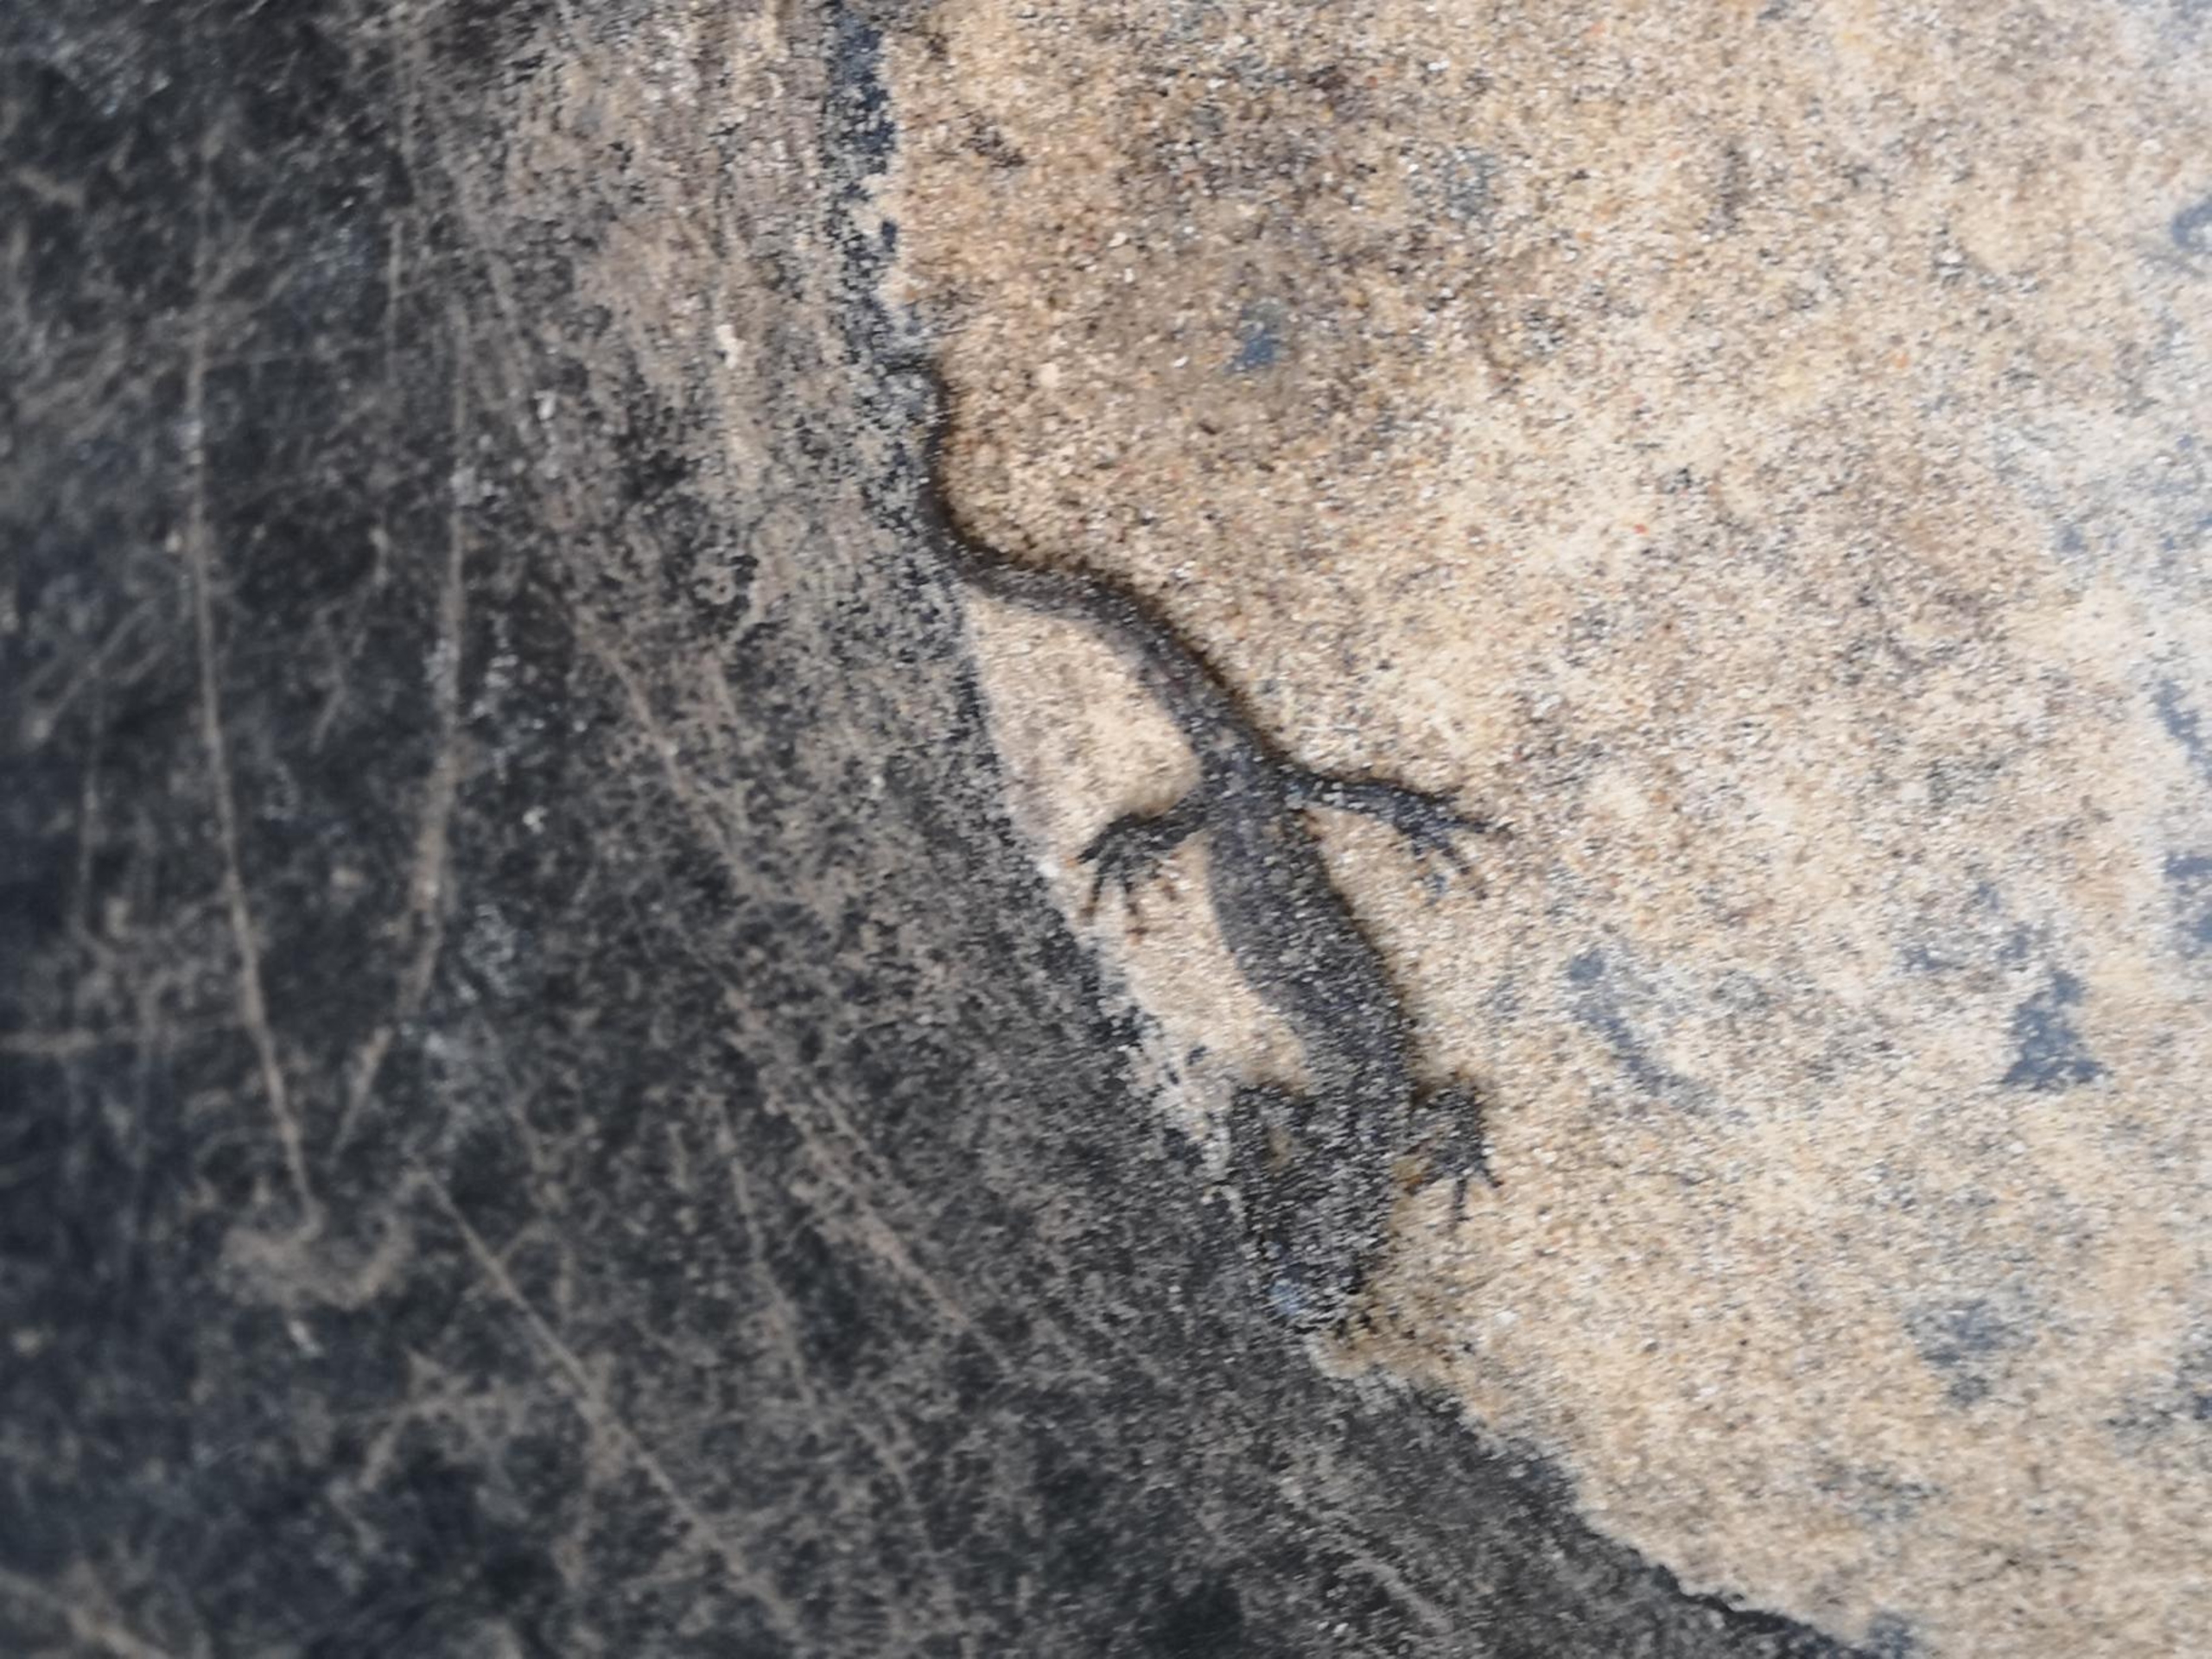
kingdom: Animalia
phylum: Chordata
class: Amphibia
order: Caudata
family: Salamandridae
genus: Triturus
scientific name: Triturus cristatus
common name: Stor vandsalamander
